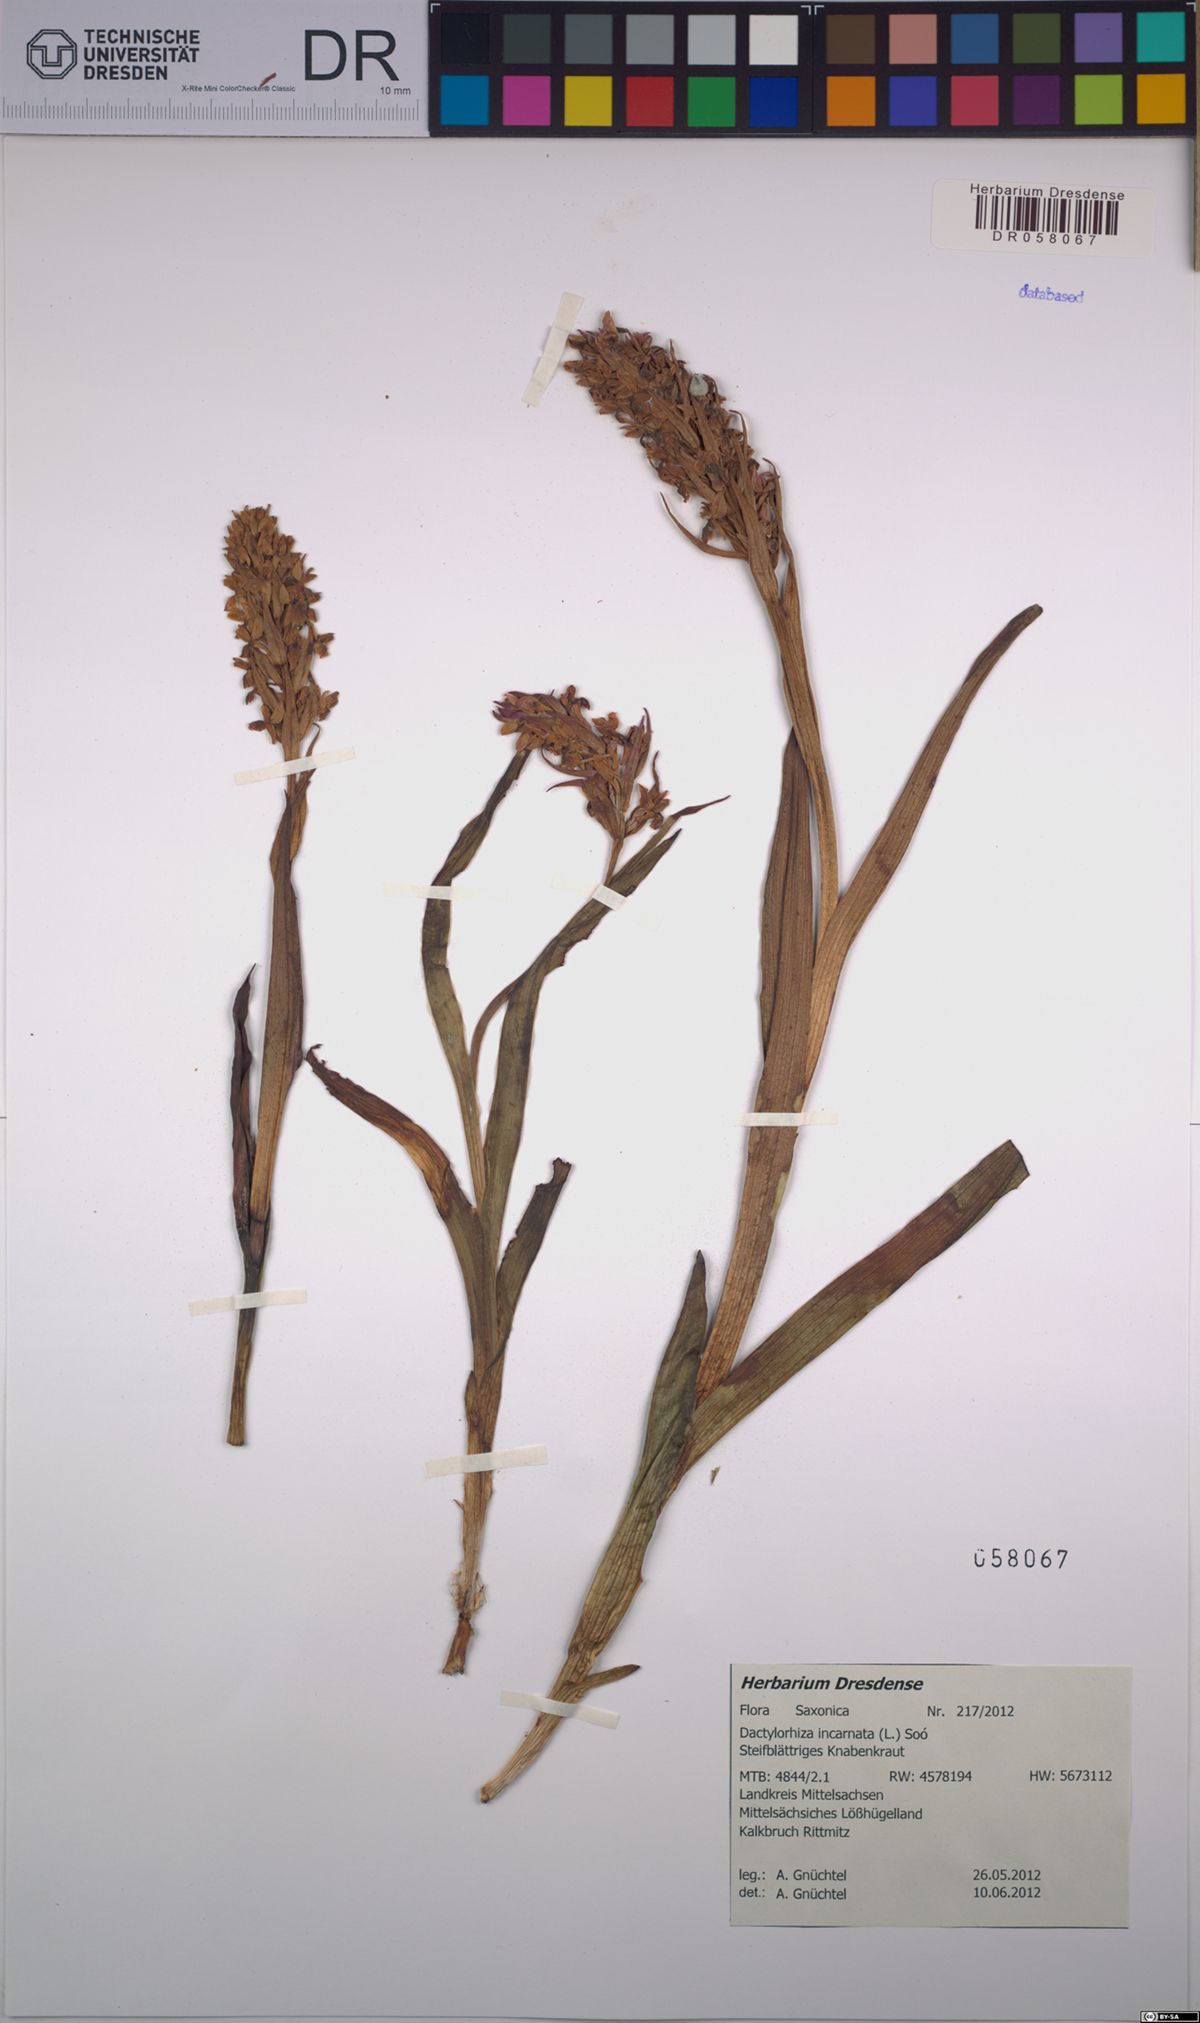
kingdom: Plantae
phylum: Tracheophyta
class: Liliopsida
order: Asparagales
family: Orchidaceae
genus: Dactylorhiza
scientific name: Dactylorhiza incarnata
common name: Early marsh-orchid
